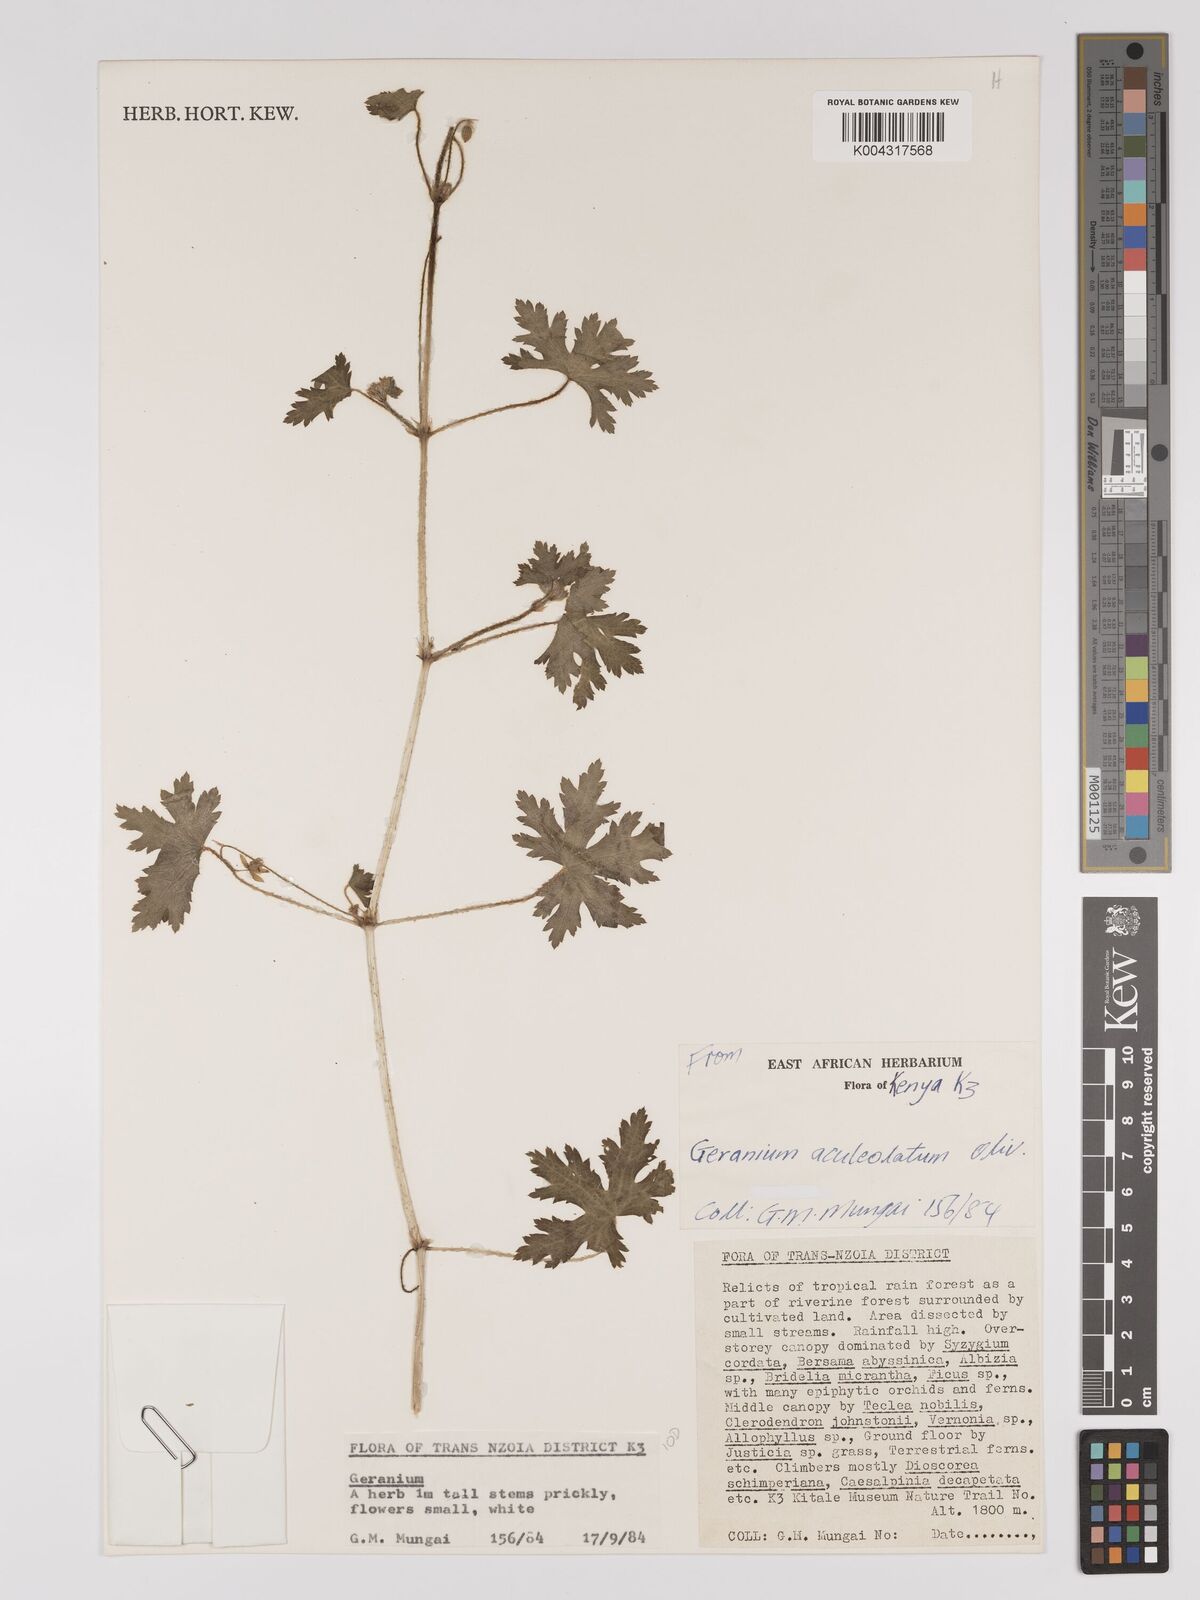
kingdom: Plantae
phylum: Tracheophyta
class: Magnoliopsida
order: Geraniales
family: Geraniaceae
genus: Geranium
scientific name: Geranium aculeolatum
